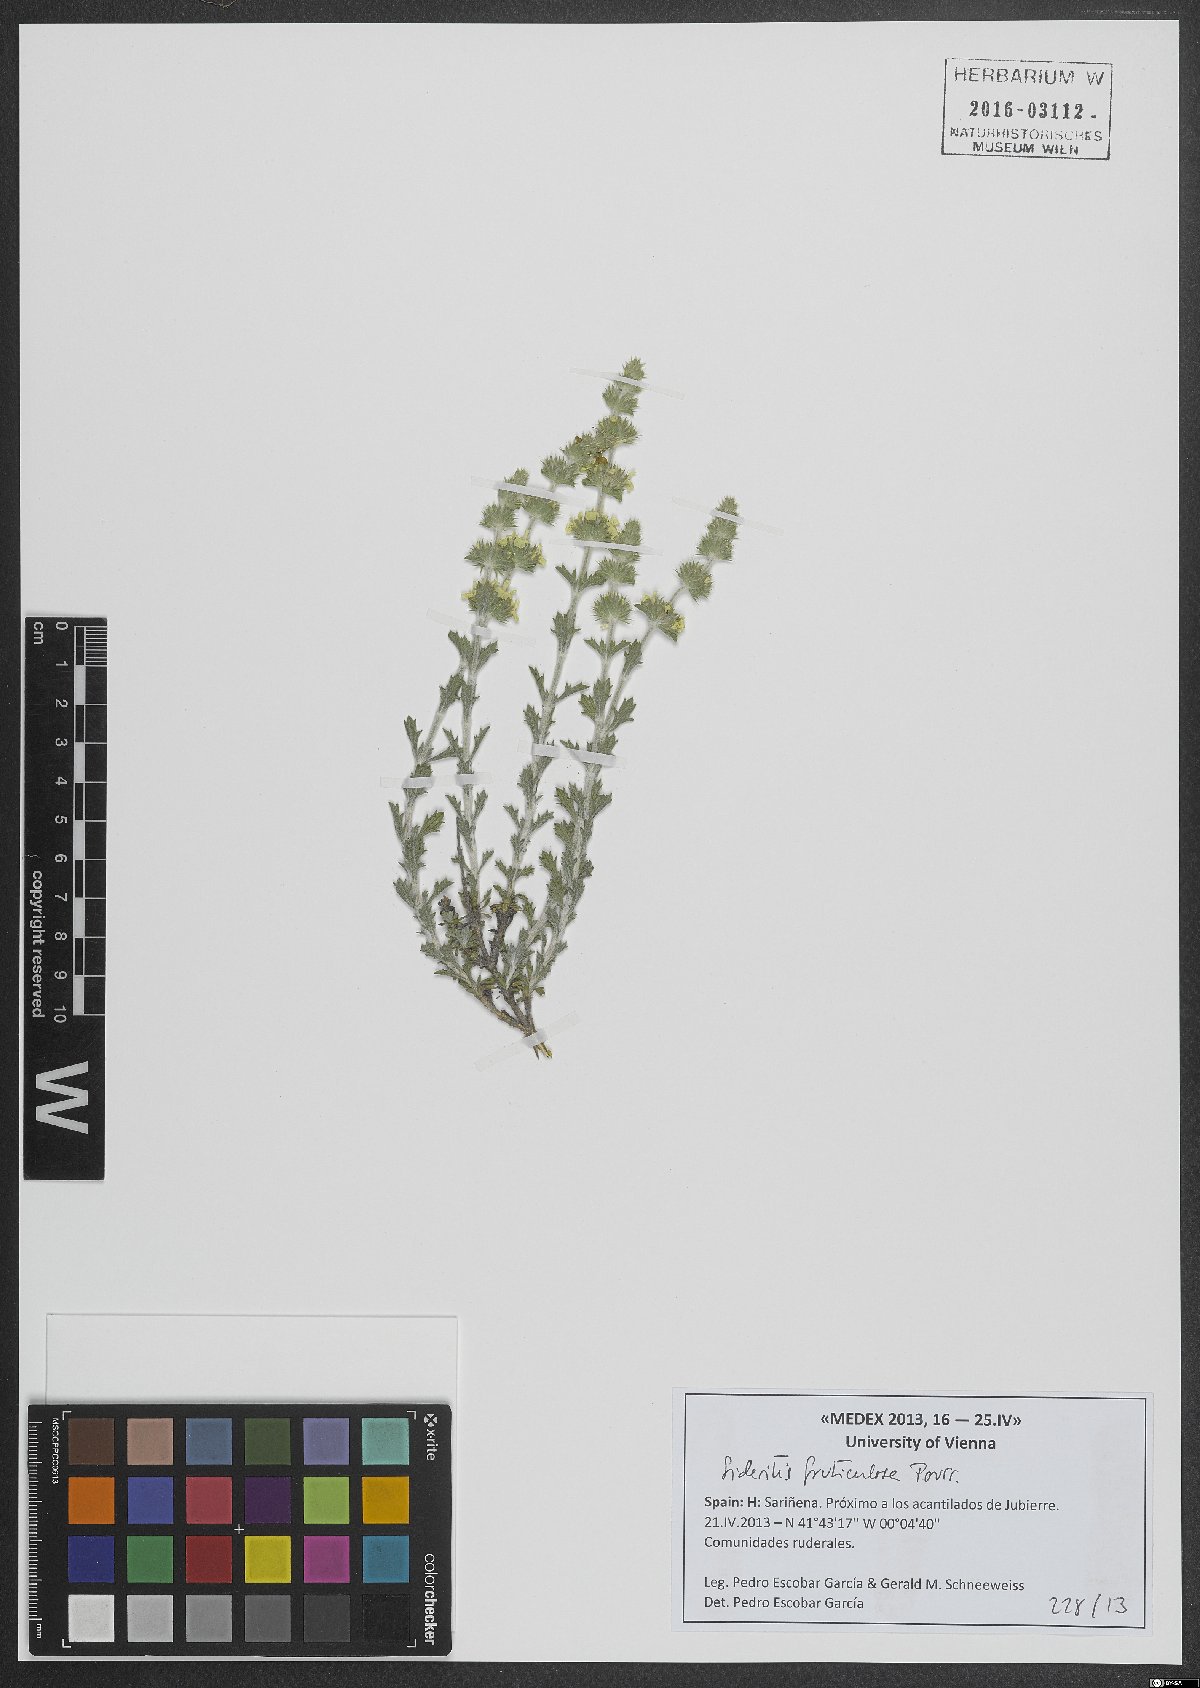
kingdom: Plantae
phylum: Tracheophyta
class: Magnoliopsida
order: Lamiales
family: Lamiaceae
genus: Sideritis
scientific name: Sideritis fruticulosa
